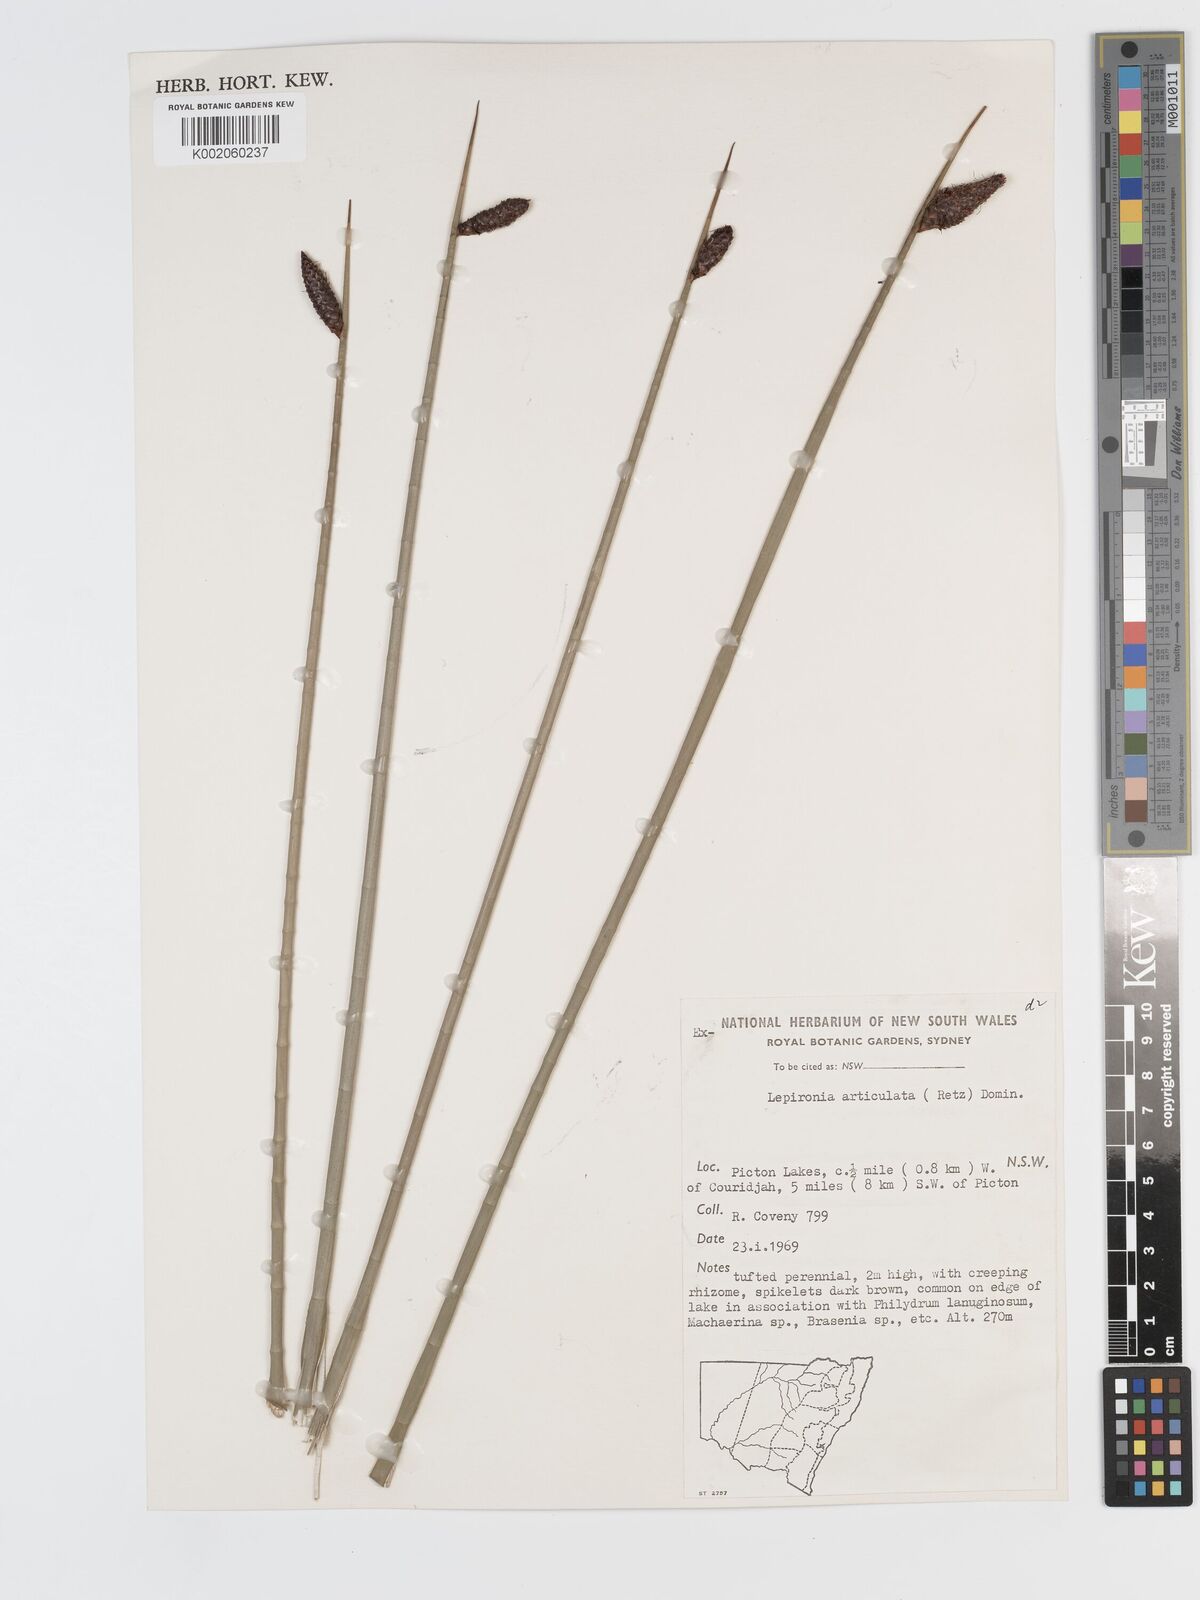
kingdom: Plantae
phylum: Tracheophyta
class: Liliopsida
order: Poales
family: Cyperaceae
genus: Lepironia
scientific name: Lepironia articulata
